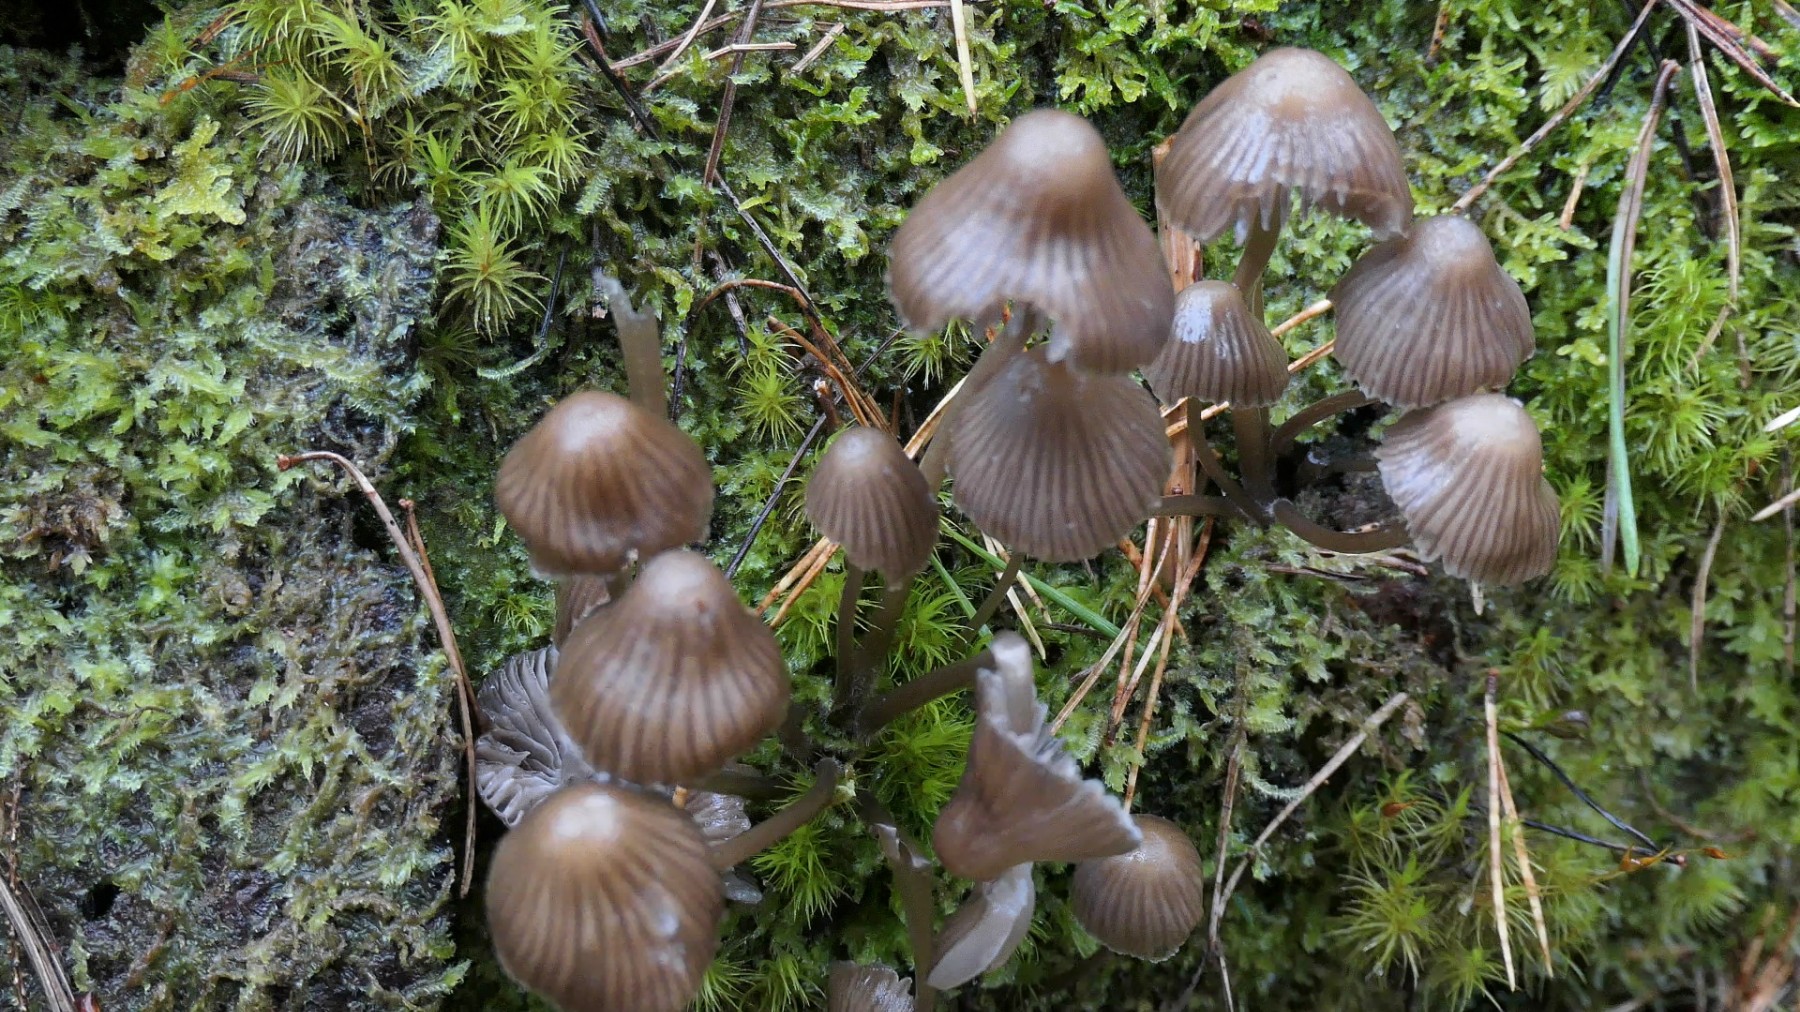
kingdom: Fungi
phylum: Basidiomycota
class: Agaricomycetes
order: Agaricales
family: Mycenaceae
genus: Mycena
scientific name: Mycena stipata
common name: stinkende huesvamp
